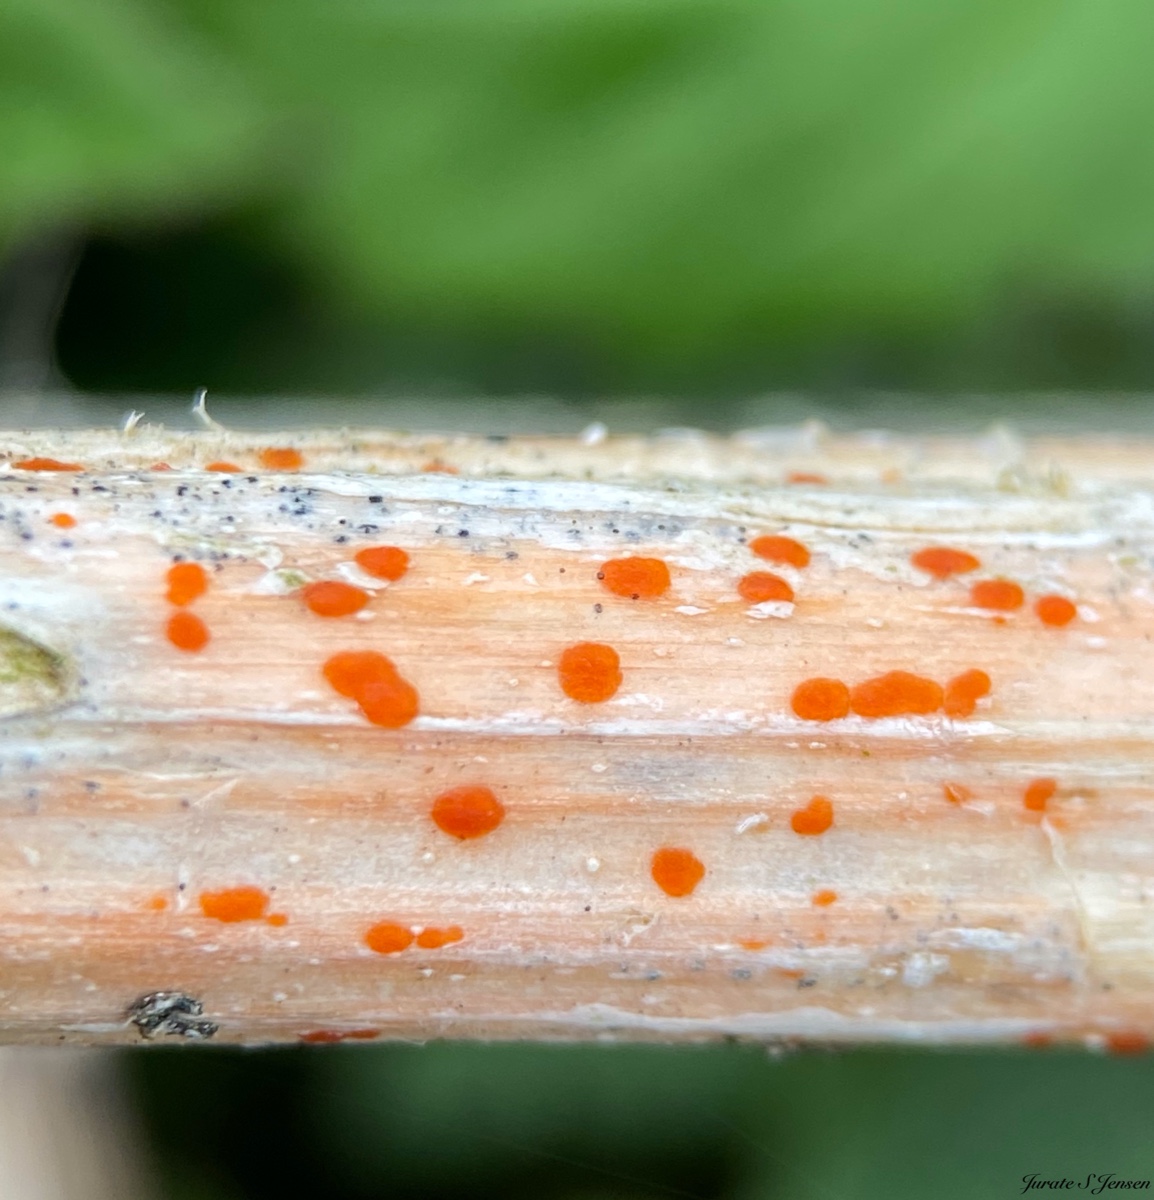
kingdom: Fungi
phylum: Ascomycota
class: Leotiomycetes
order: Helotiales
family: Calloriaceae
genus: Calloria
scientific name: Calloria urticae
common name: nælde-orangeskive
